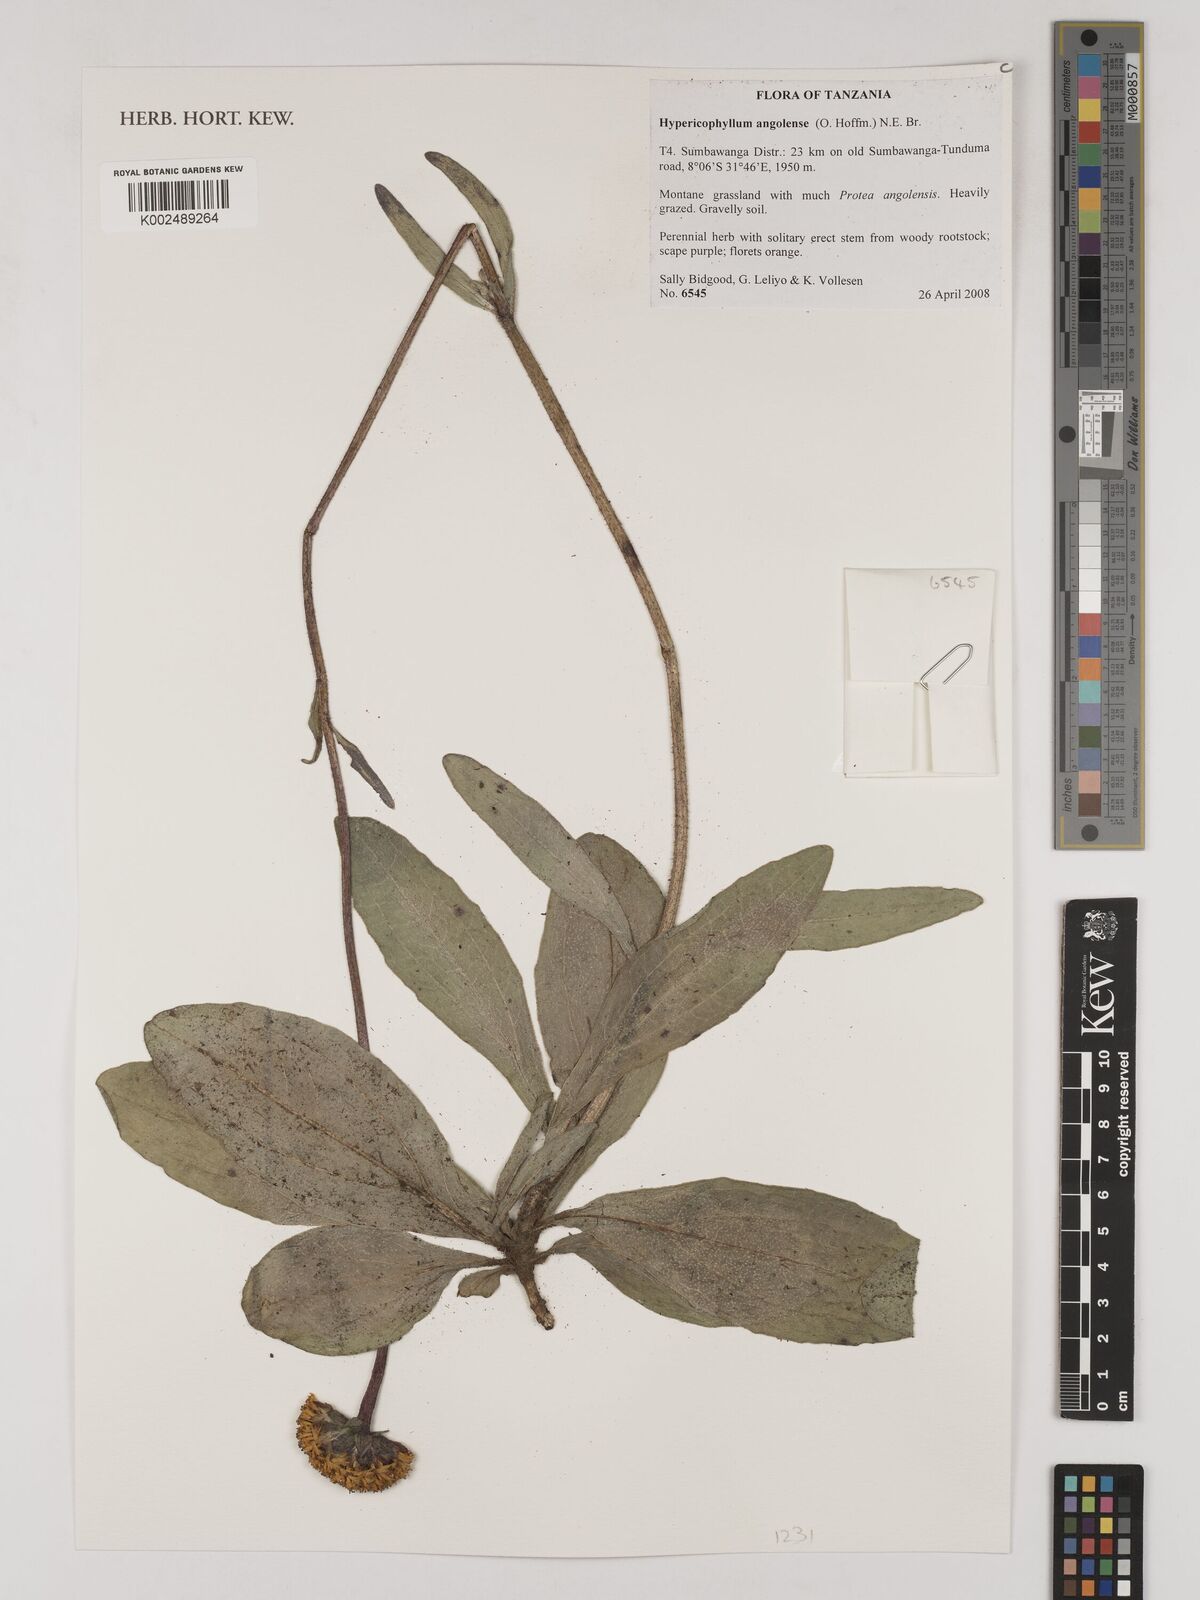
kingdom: Plantae
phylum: Tracheophyta
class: Magnoliopsida
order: Asterales
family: Asteraceae
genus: Hypericophyllum
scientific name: Hypericophyllum angolense
